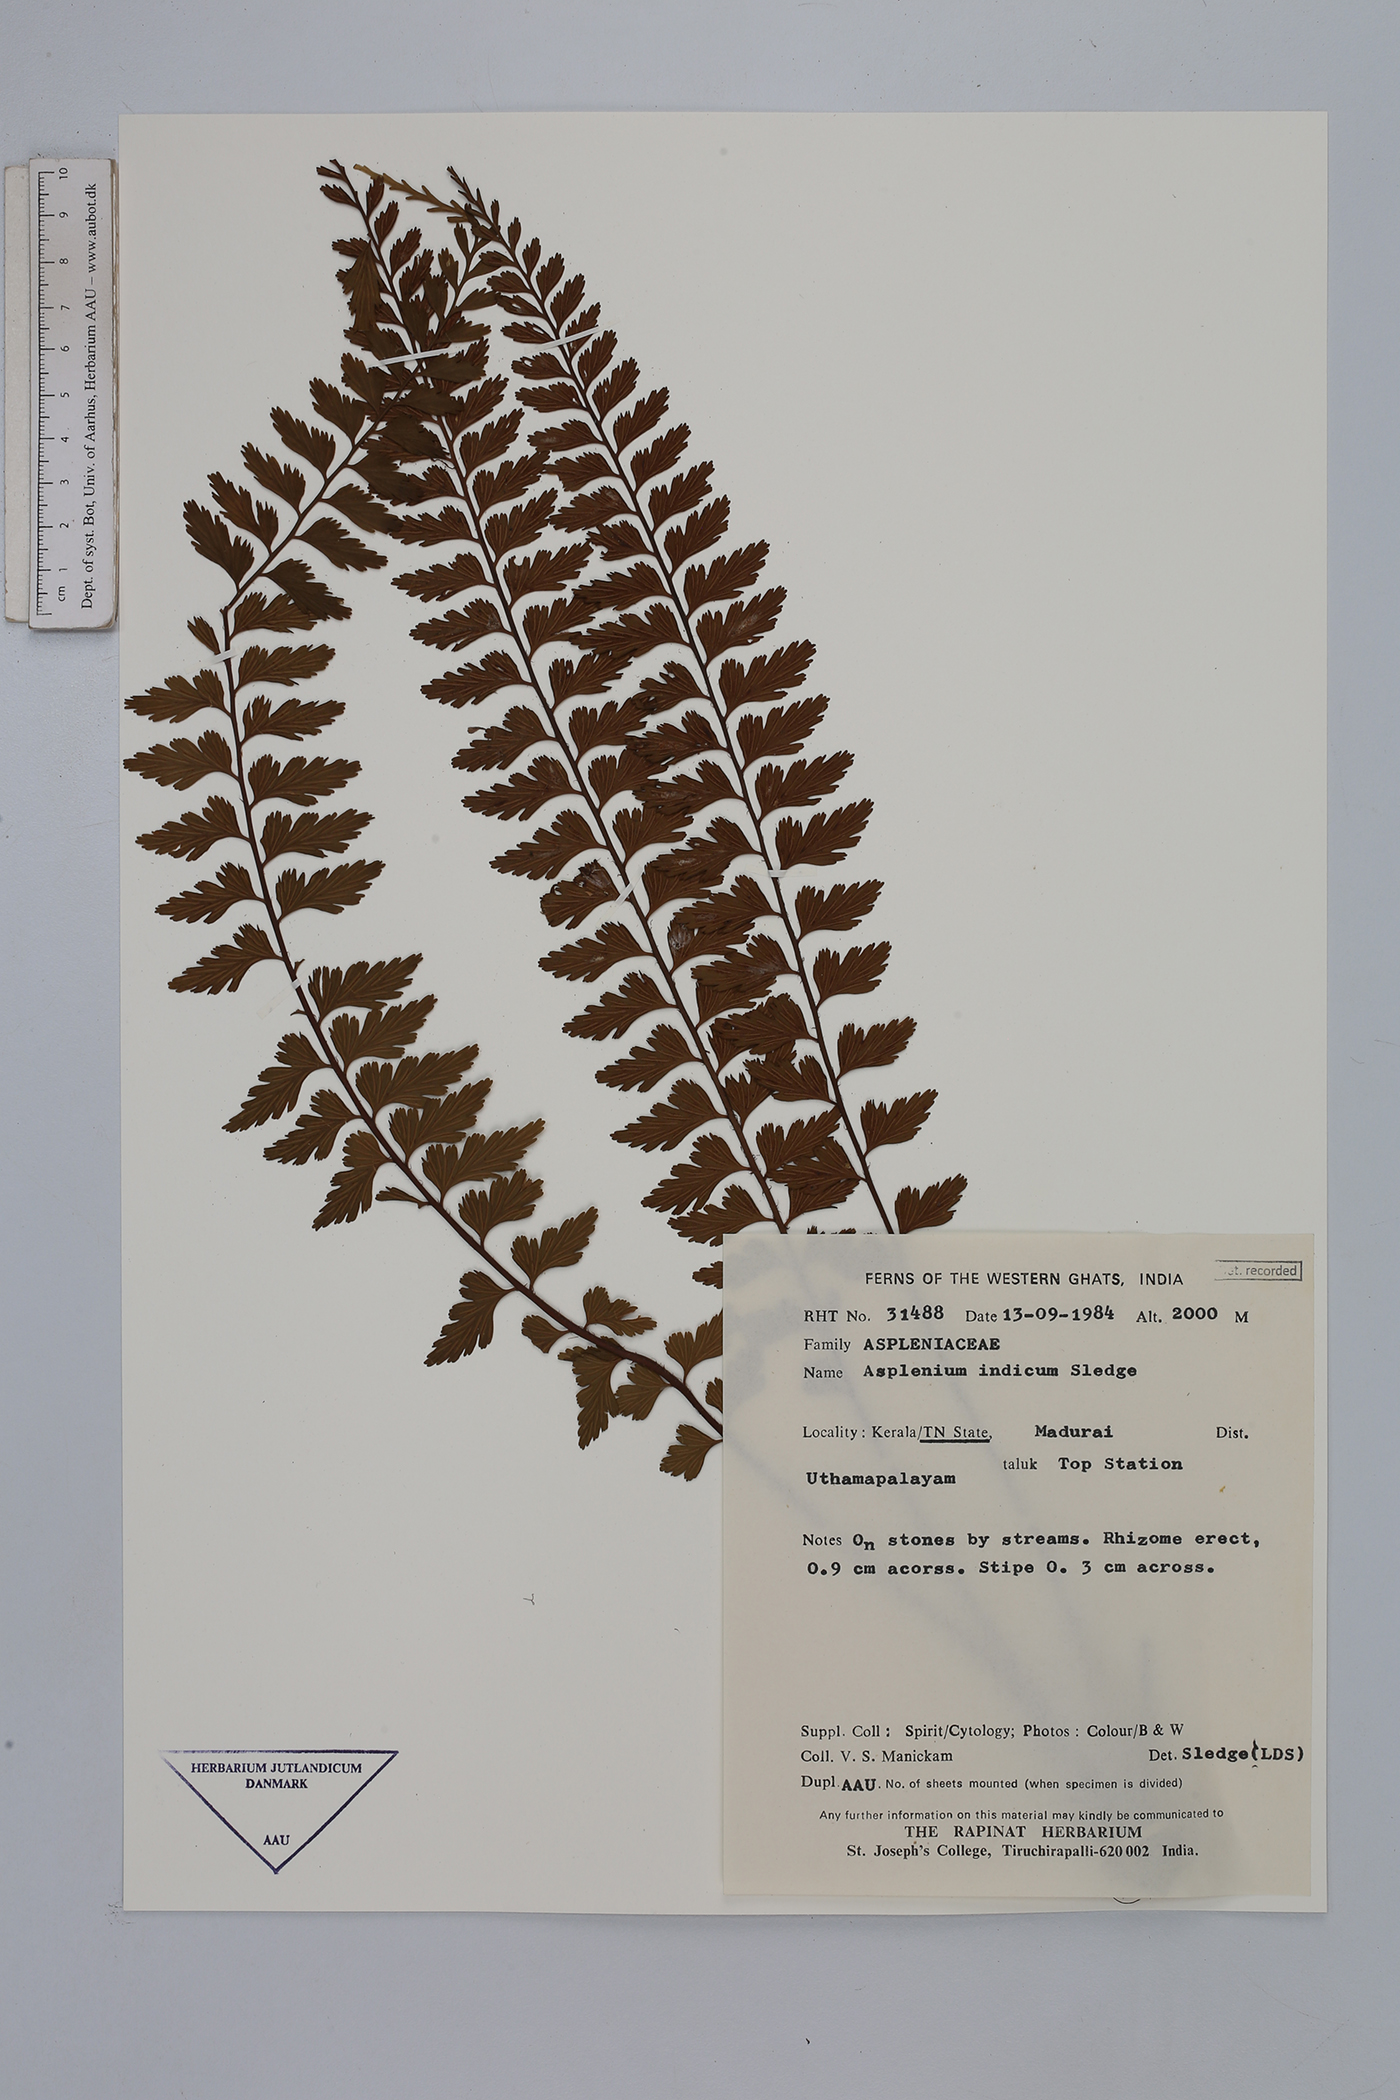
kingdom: Plantae
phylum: Tracheophyta
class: Polypodiopsida
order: Polypodiales
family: Aspleniaceae
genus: Asplenium
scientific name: Asplenium yoshinagae
